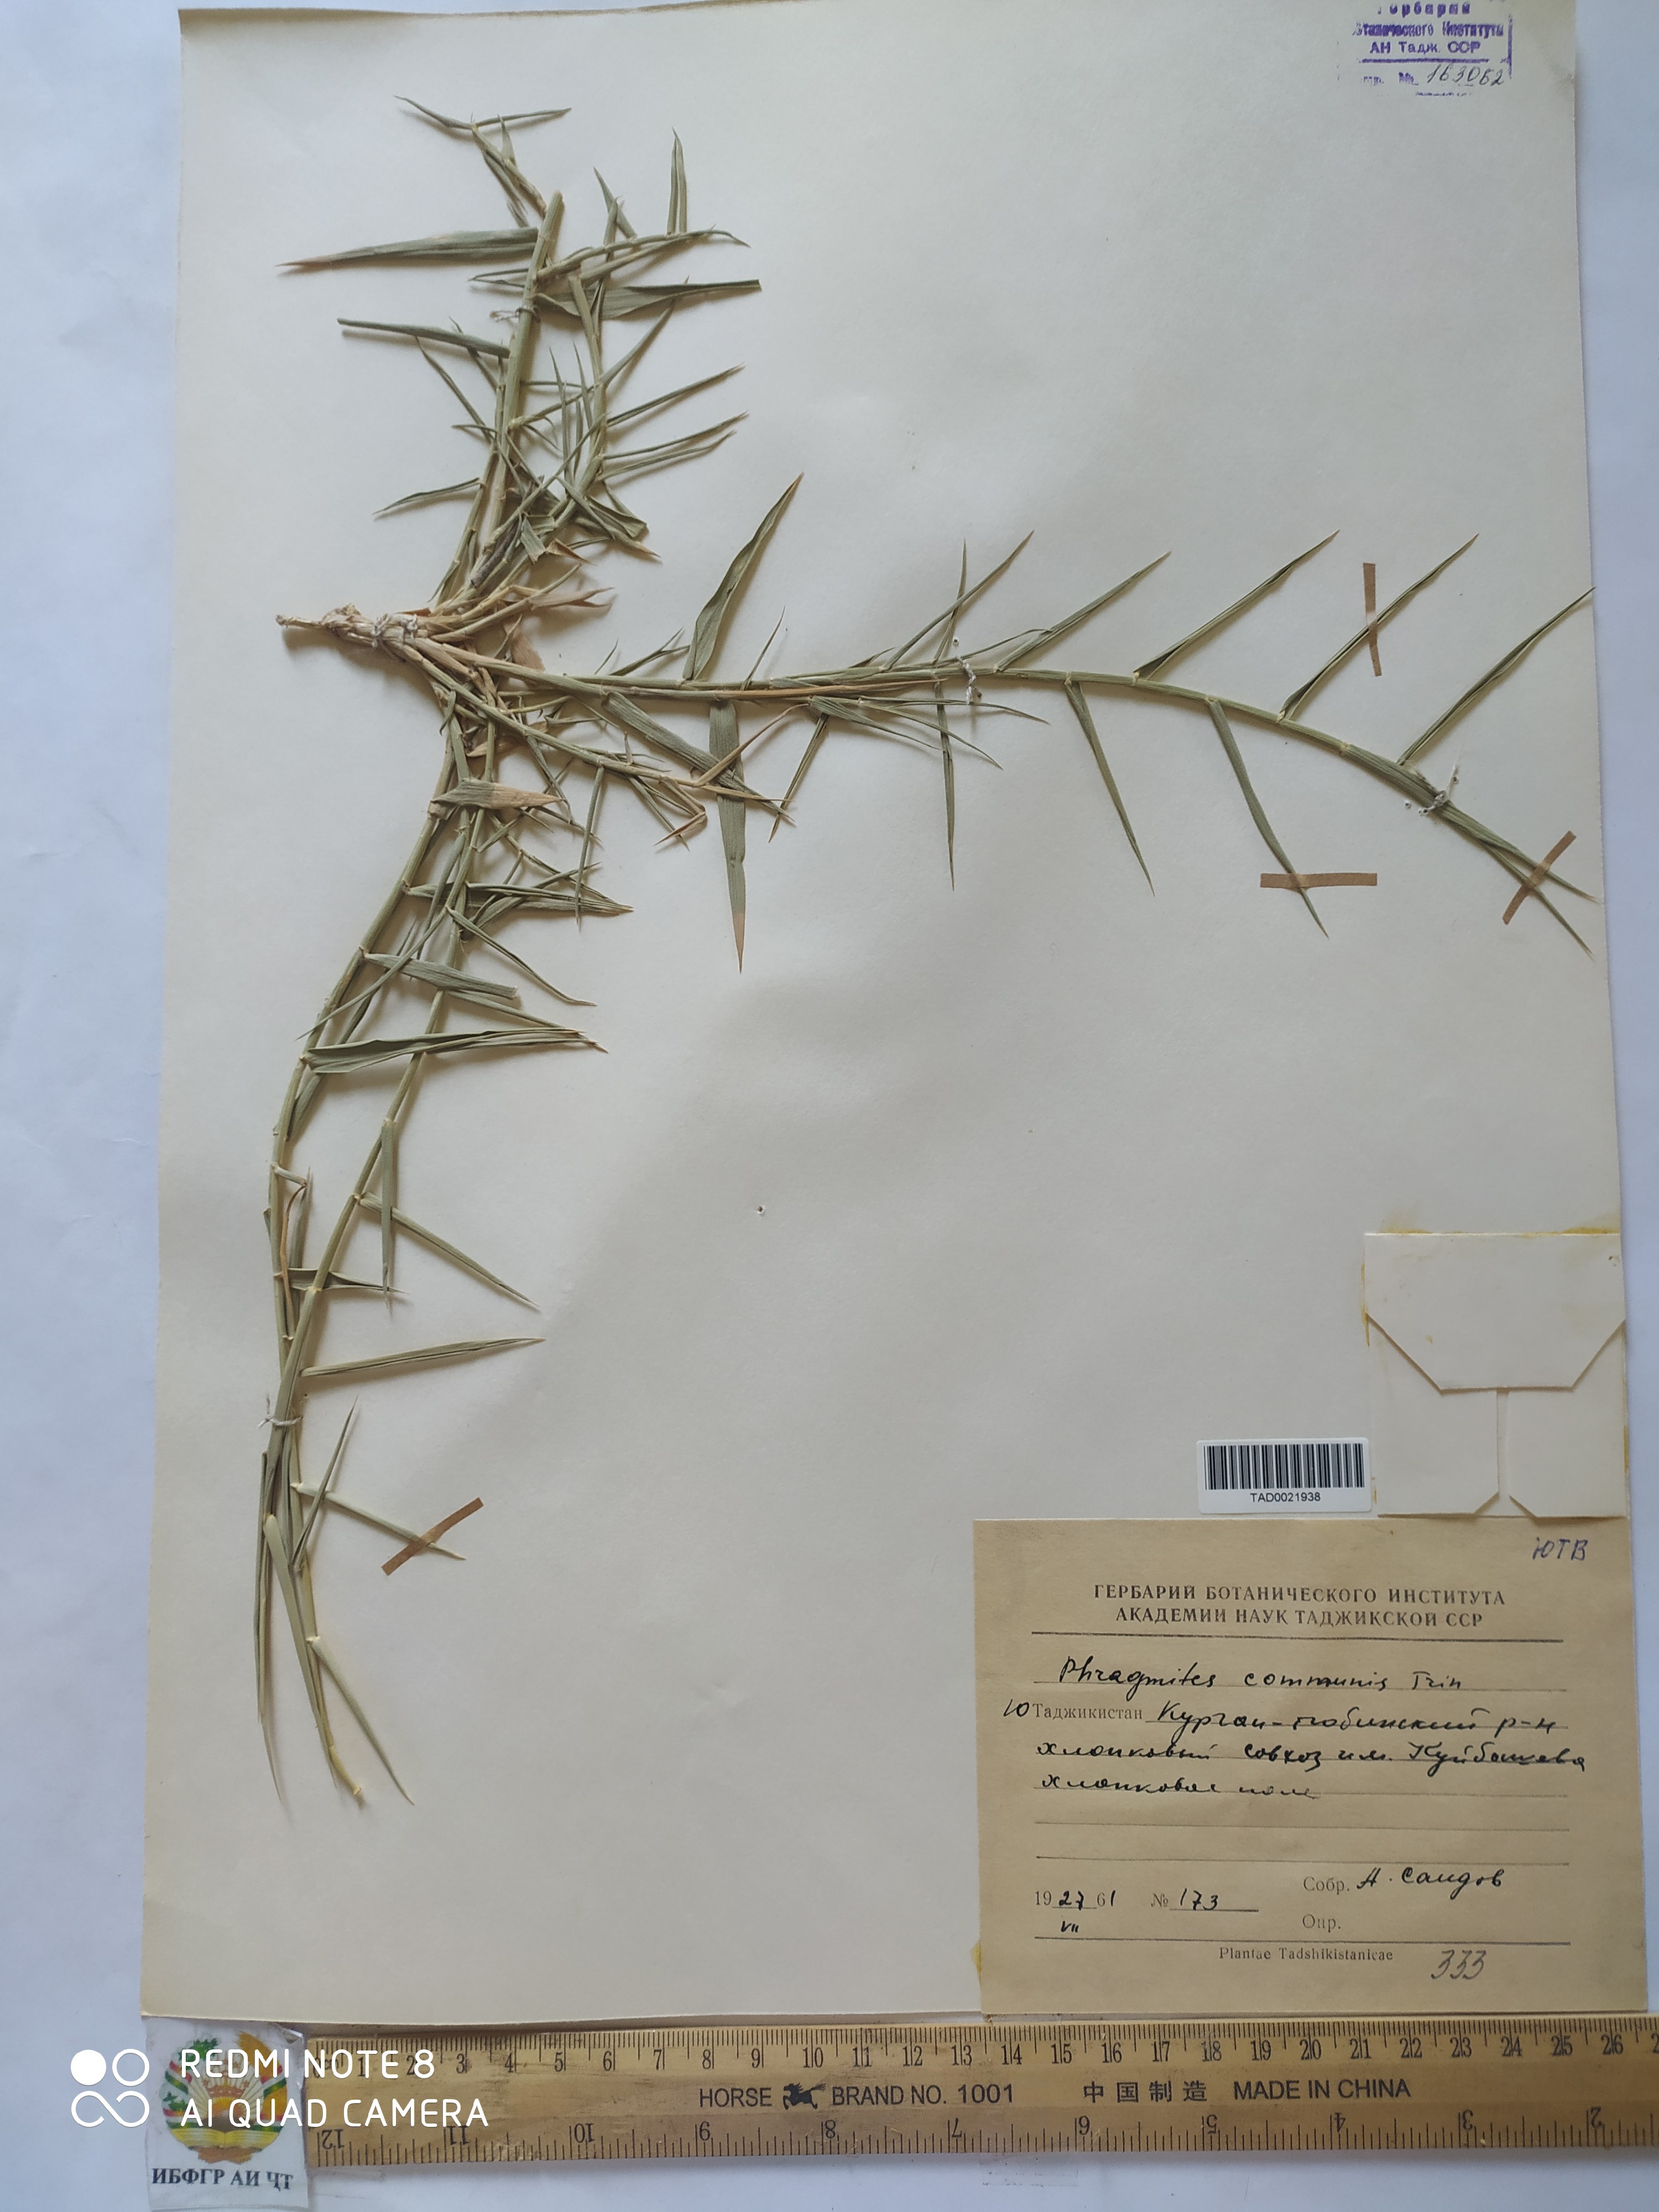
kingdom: Plantae
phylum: Tracheophyta
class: Liliopsida
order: Poales
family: Poaceae
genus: Phragmites
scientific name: Phragmites australis
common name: Common reed
